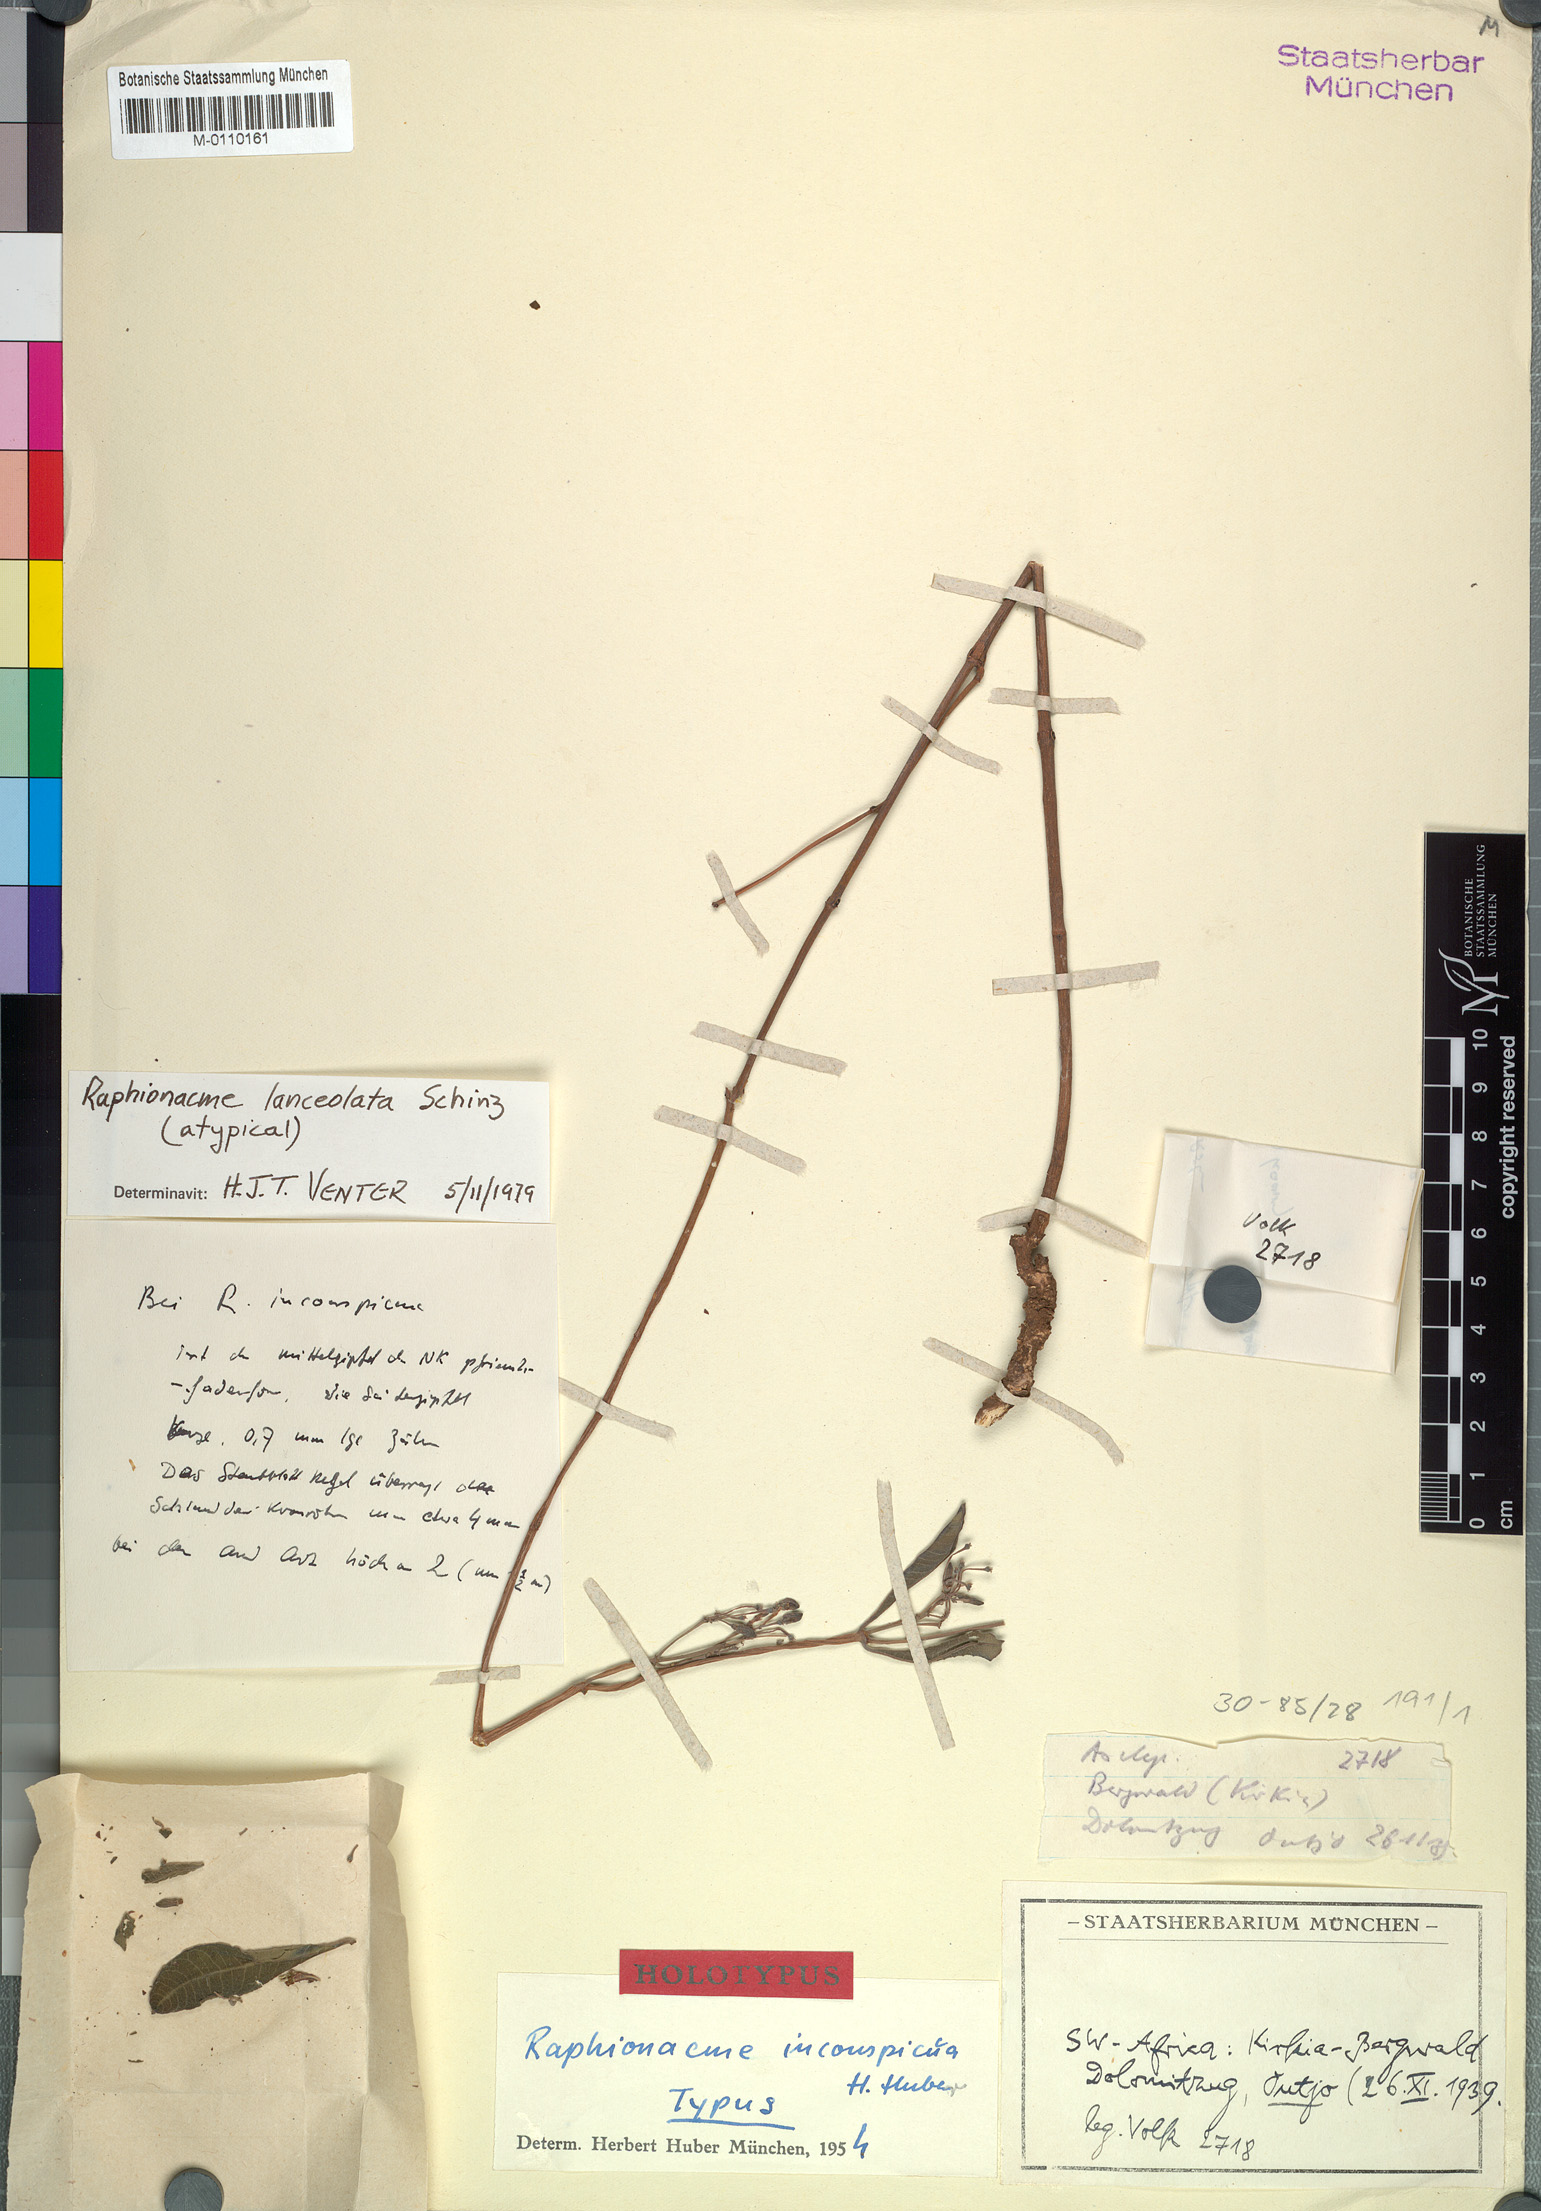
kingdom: Plantae
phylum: Tracheophyta
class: Magnoliopsida
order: Gentianales
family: Apocynaceae
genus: Raphionacme
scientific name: Raphionacme lanceolata
